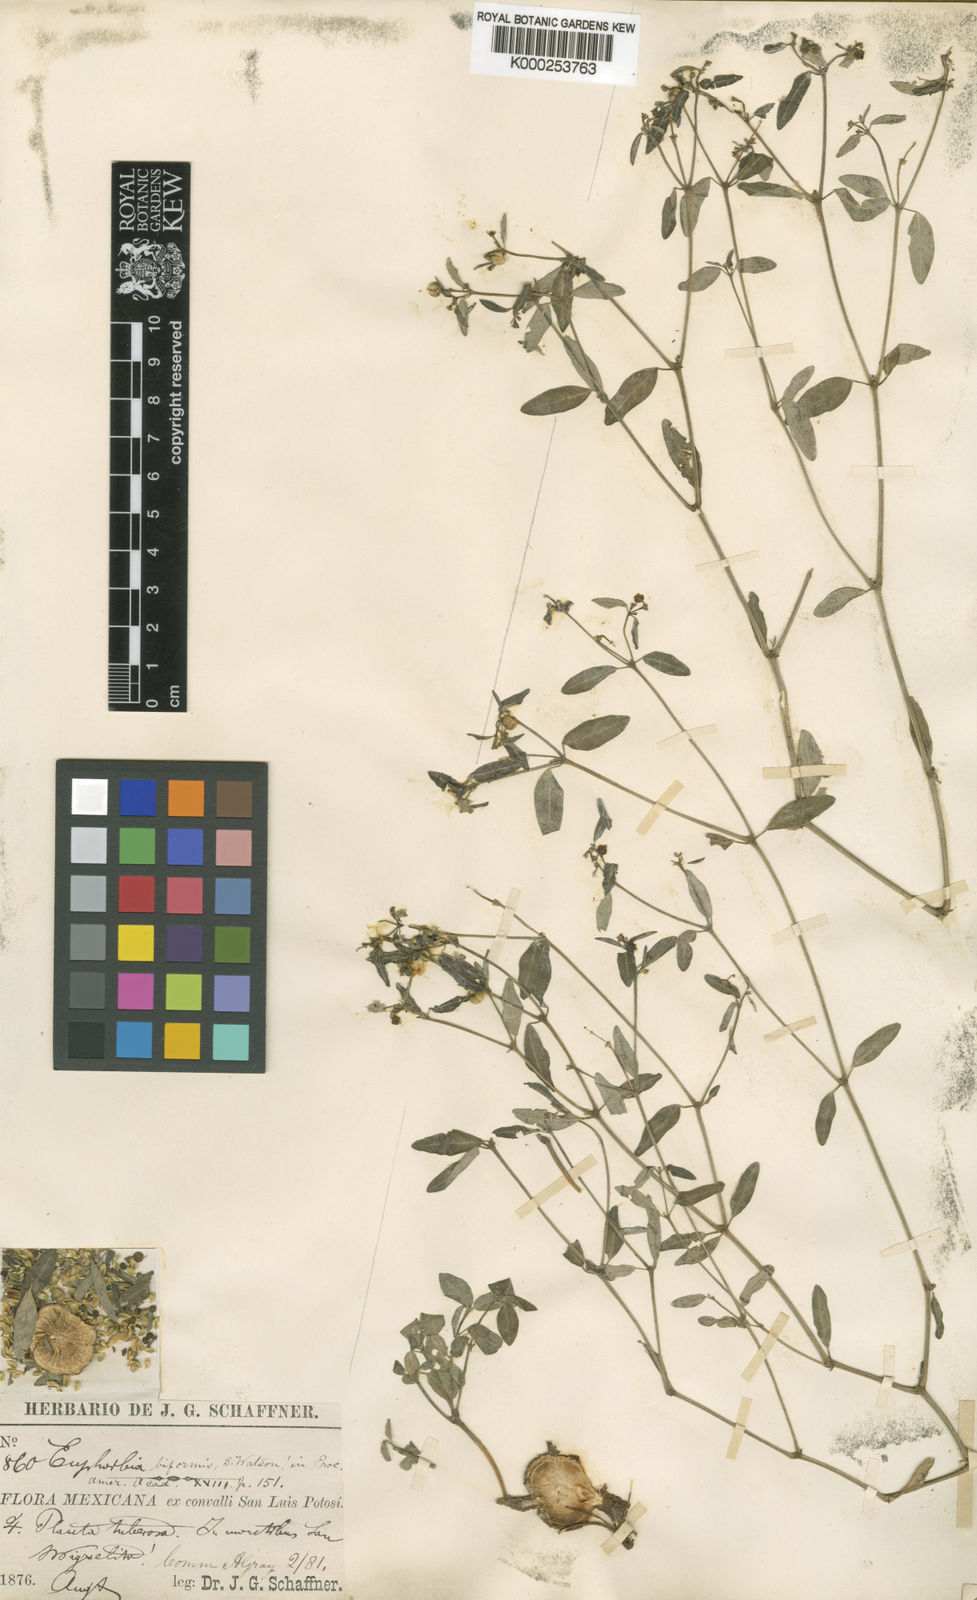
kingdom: Plantae
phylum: Tracheophyta
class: Magnoliopsida
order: Malpighiales
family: Euphorbiaceae
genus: Euphorbia
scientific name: Euphorbia macropus
